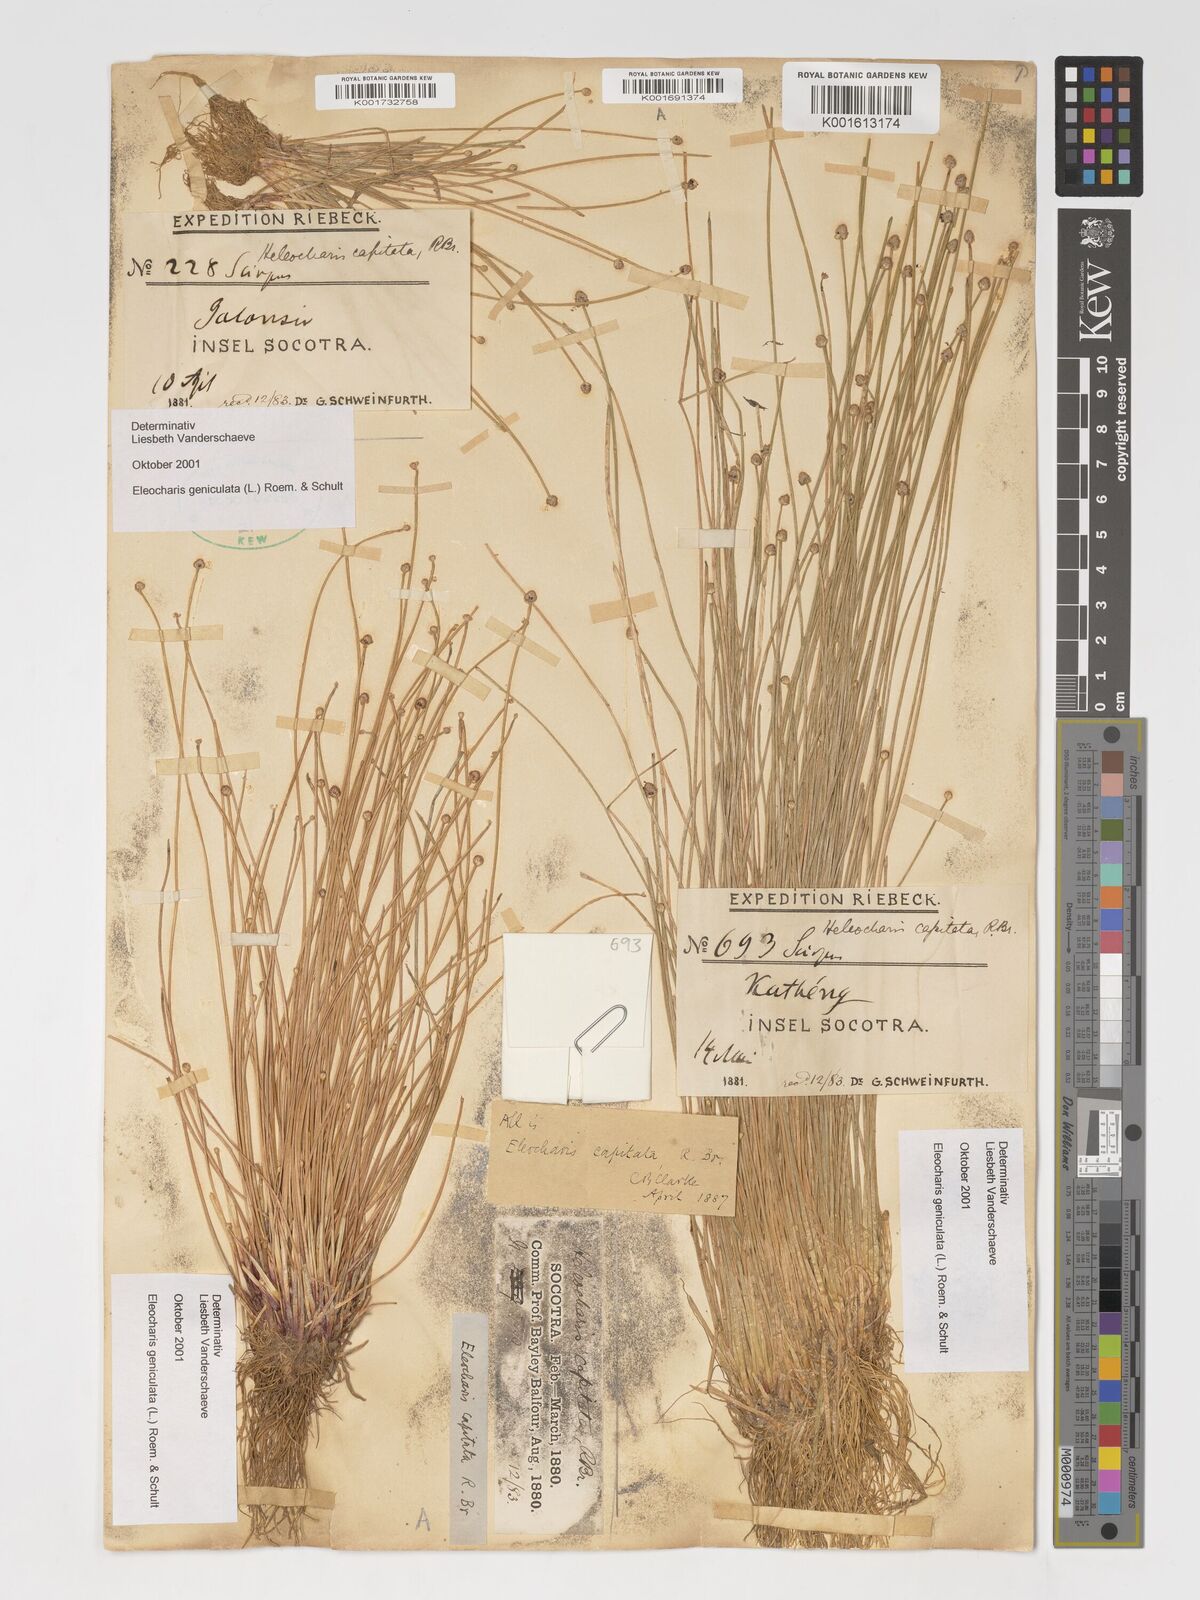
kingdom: Plantae
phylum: Tracheophyta
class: Liliopsida
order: Poales
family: Cyperaceae
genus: Eleocharis
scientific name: Eleocharis geniculata
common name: Canada spikesedge
